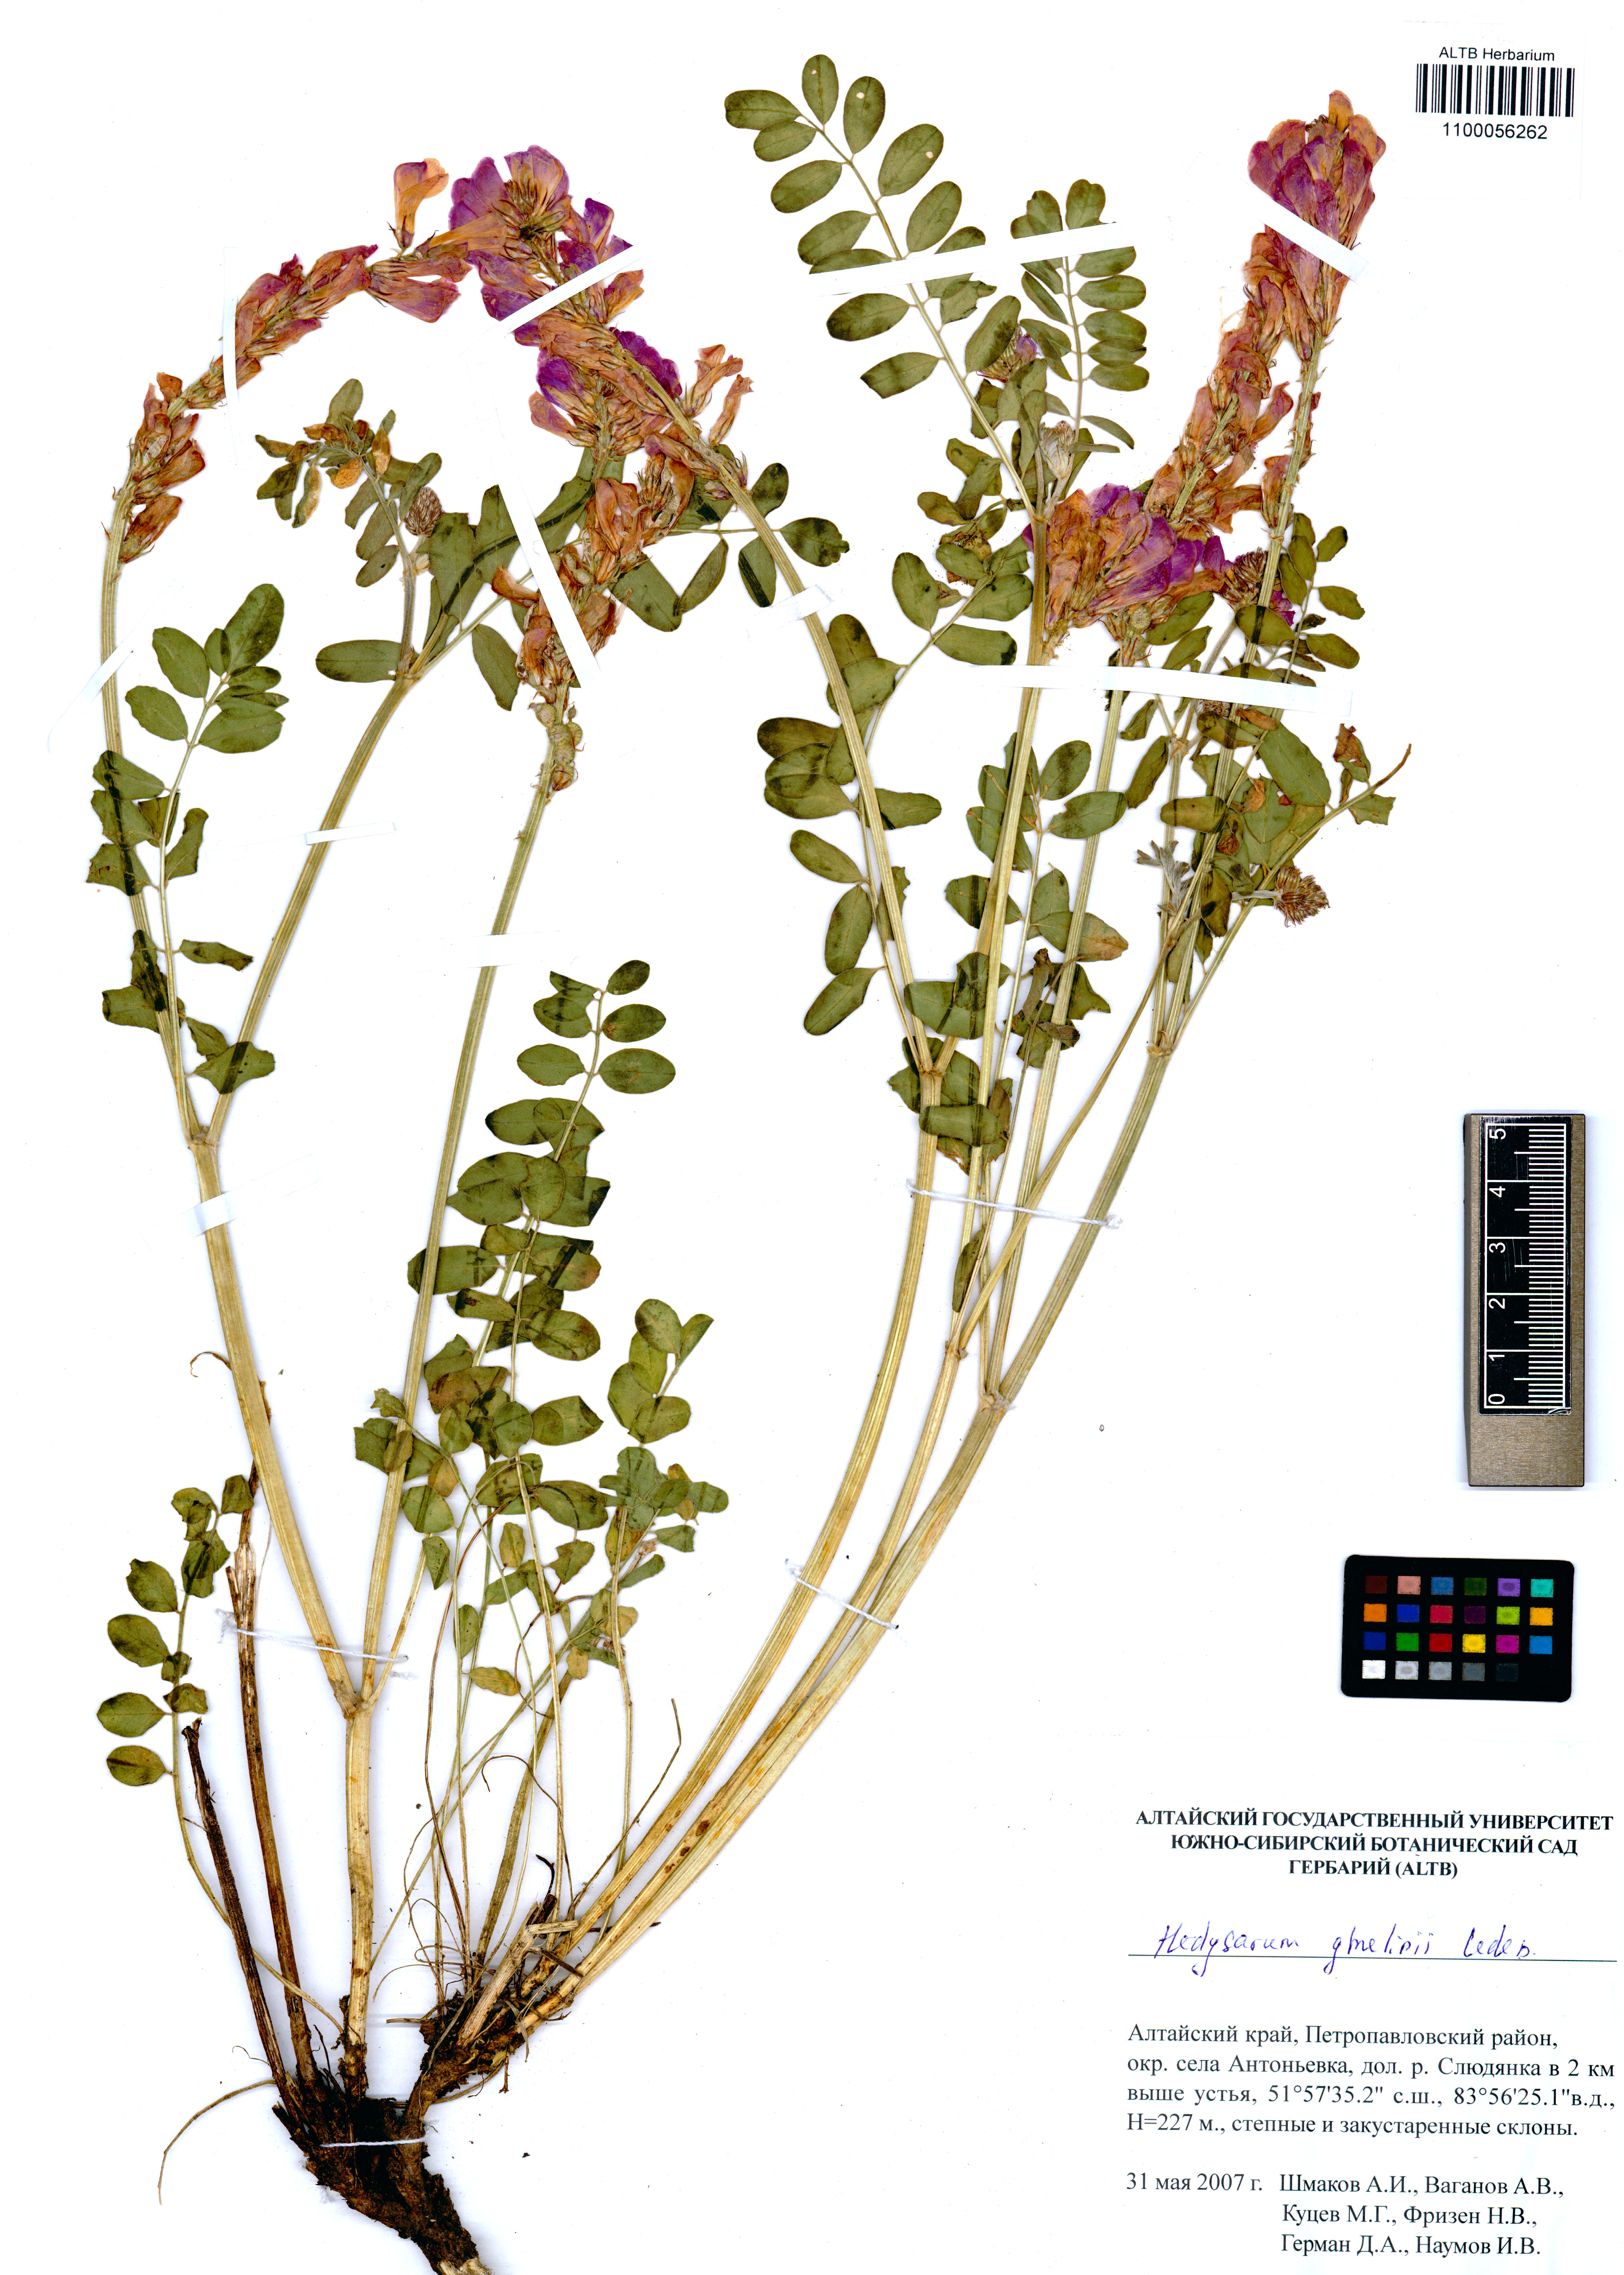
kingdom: Plantae
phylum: Tracheophyta
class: Magnoliopsida
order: Fabales
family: Fabaceae
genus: Hedysarum
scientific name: Hedysarum gmelinii
